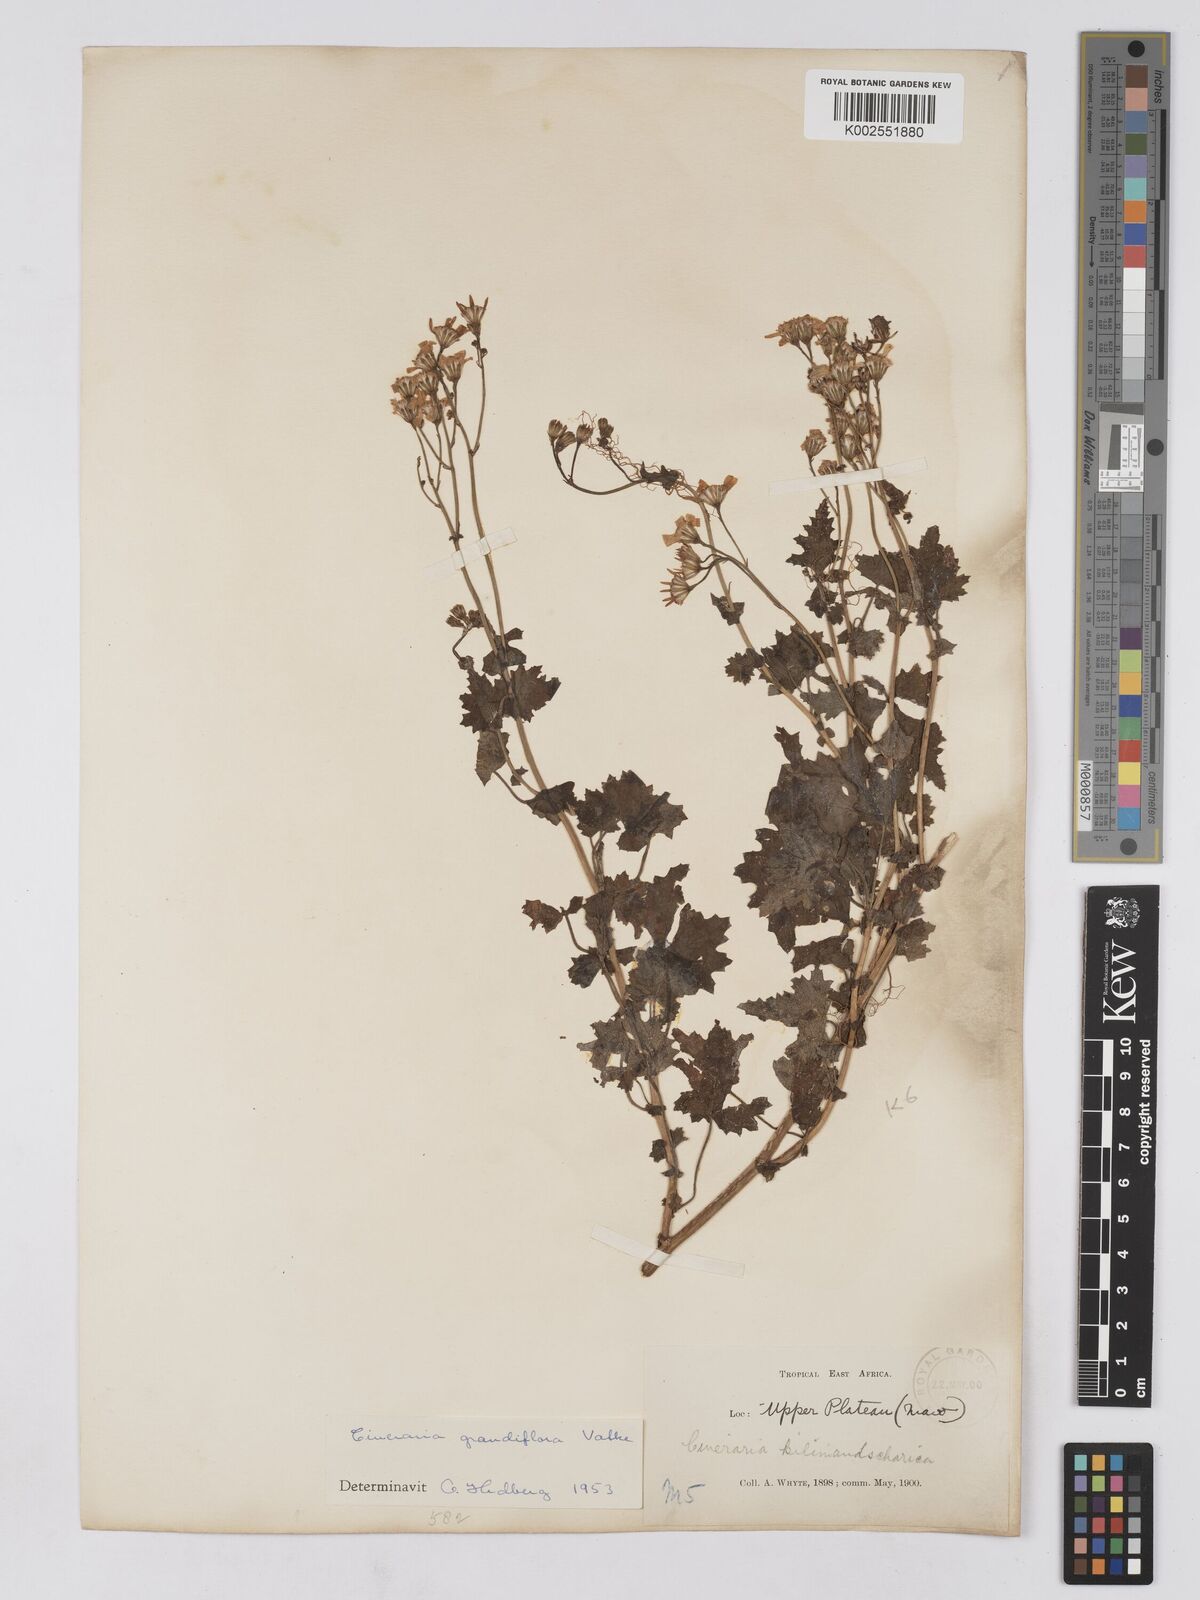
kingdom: Plantae
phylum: Tracheophyta
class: Magnoliopsida
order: Asterales
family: Asteraceae
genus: Cineraria
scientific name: Cineraria deltoidea
